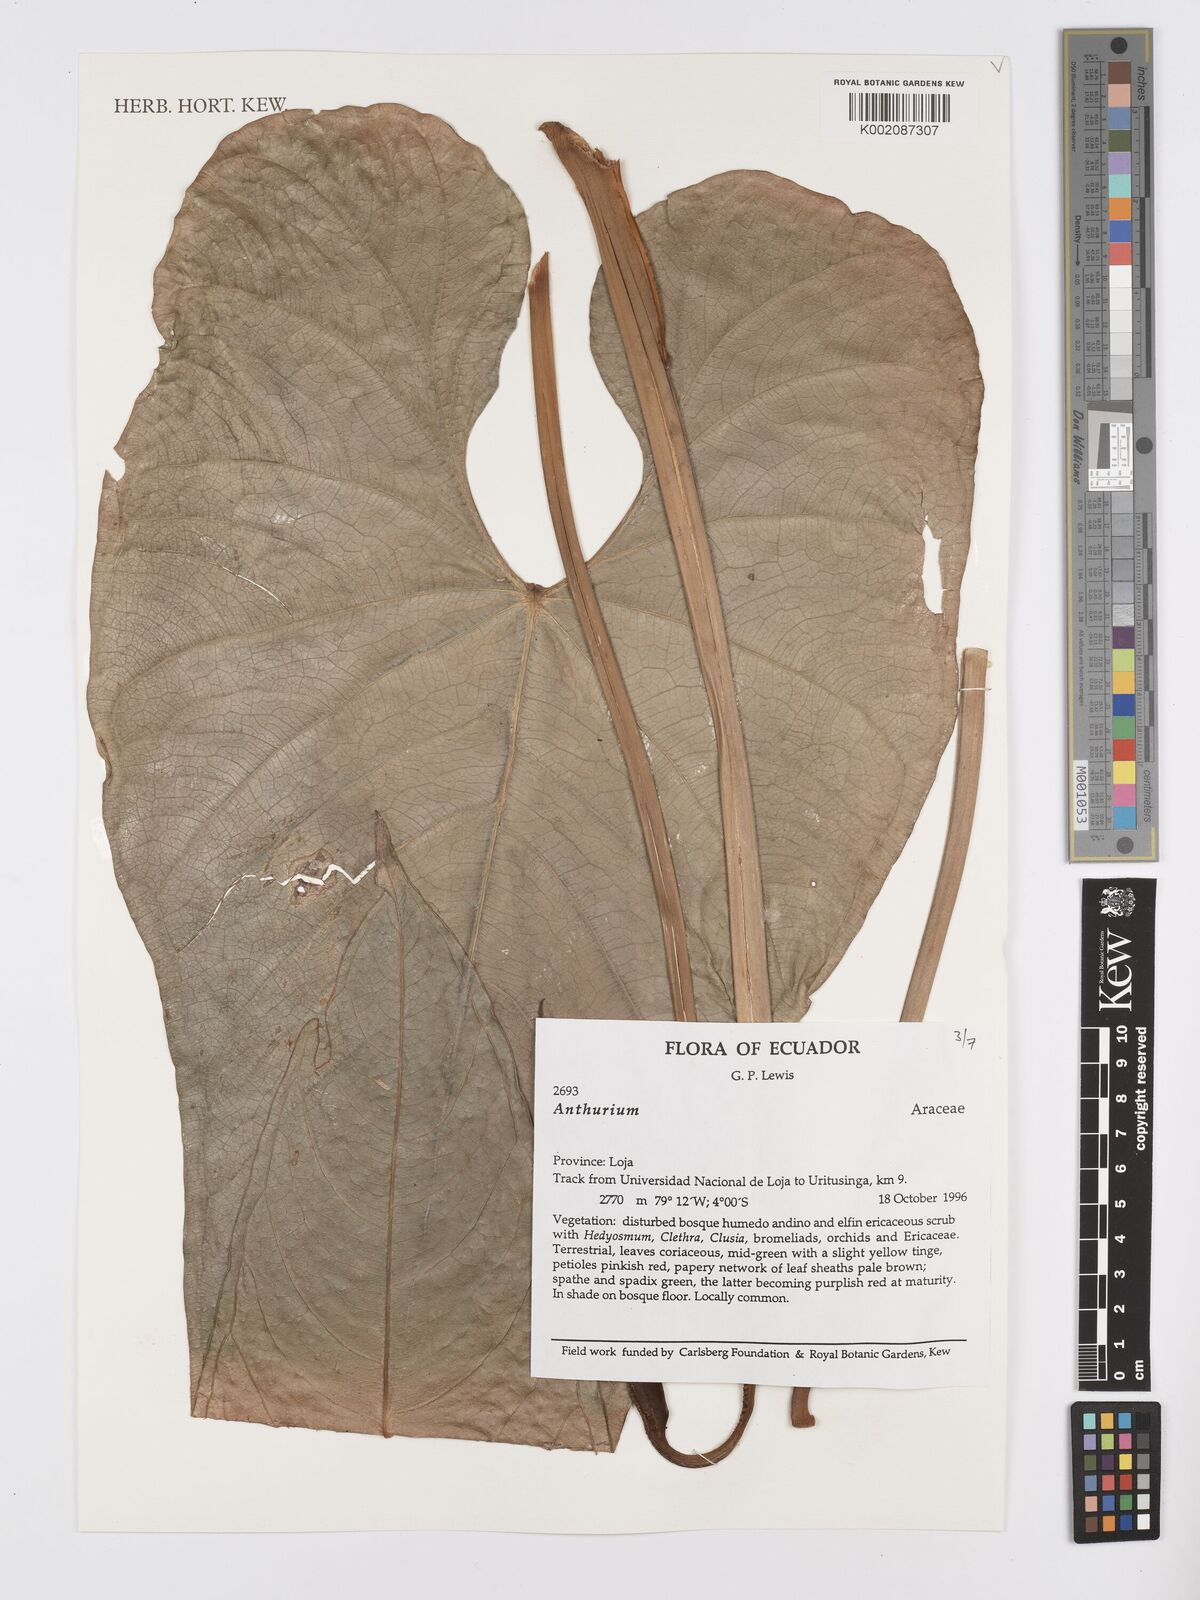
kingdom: Plantae
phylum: Tracheophyta
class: Liliopsida
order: Alismatales
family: Araceae
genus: Anthurium
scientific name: Anthurium
